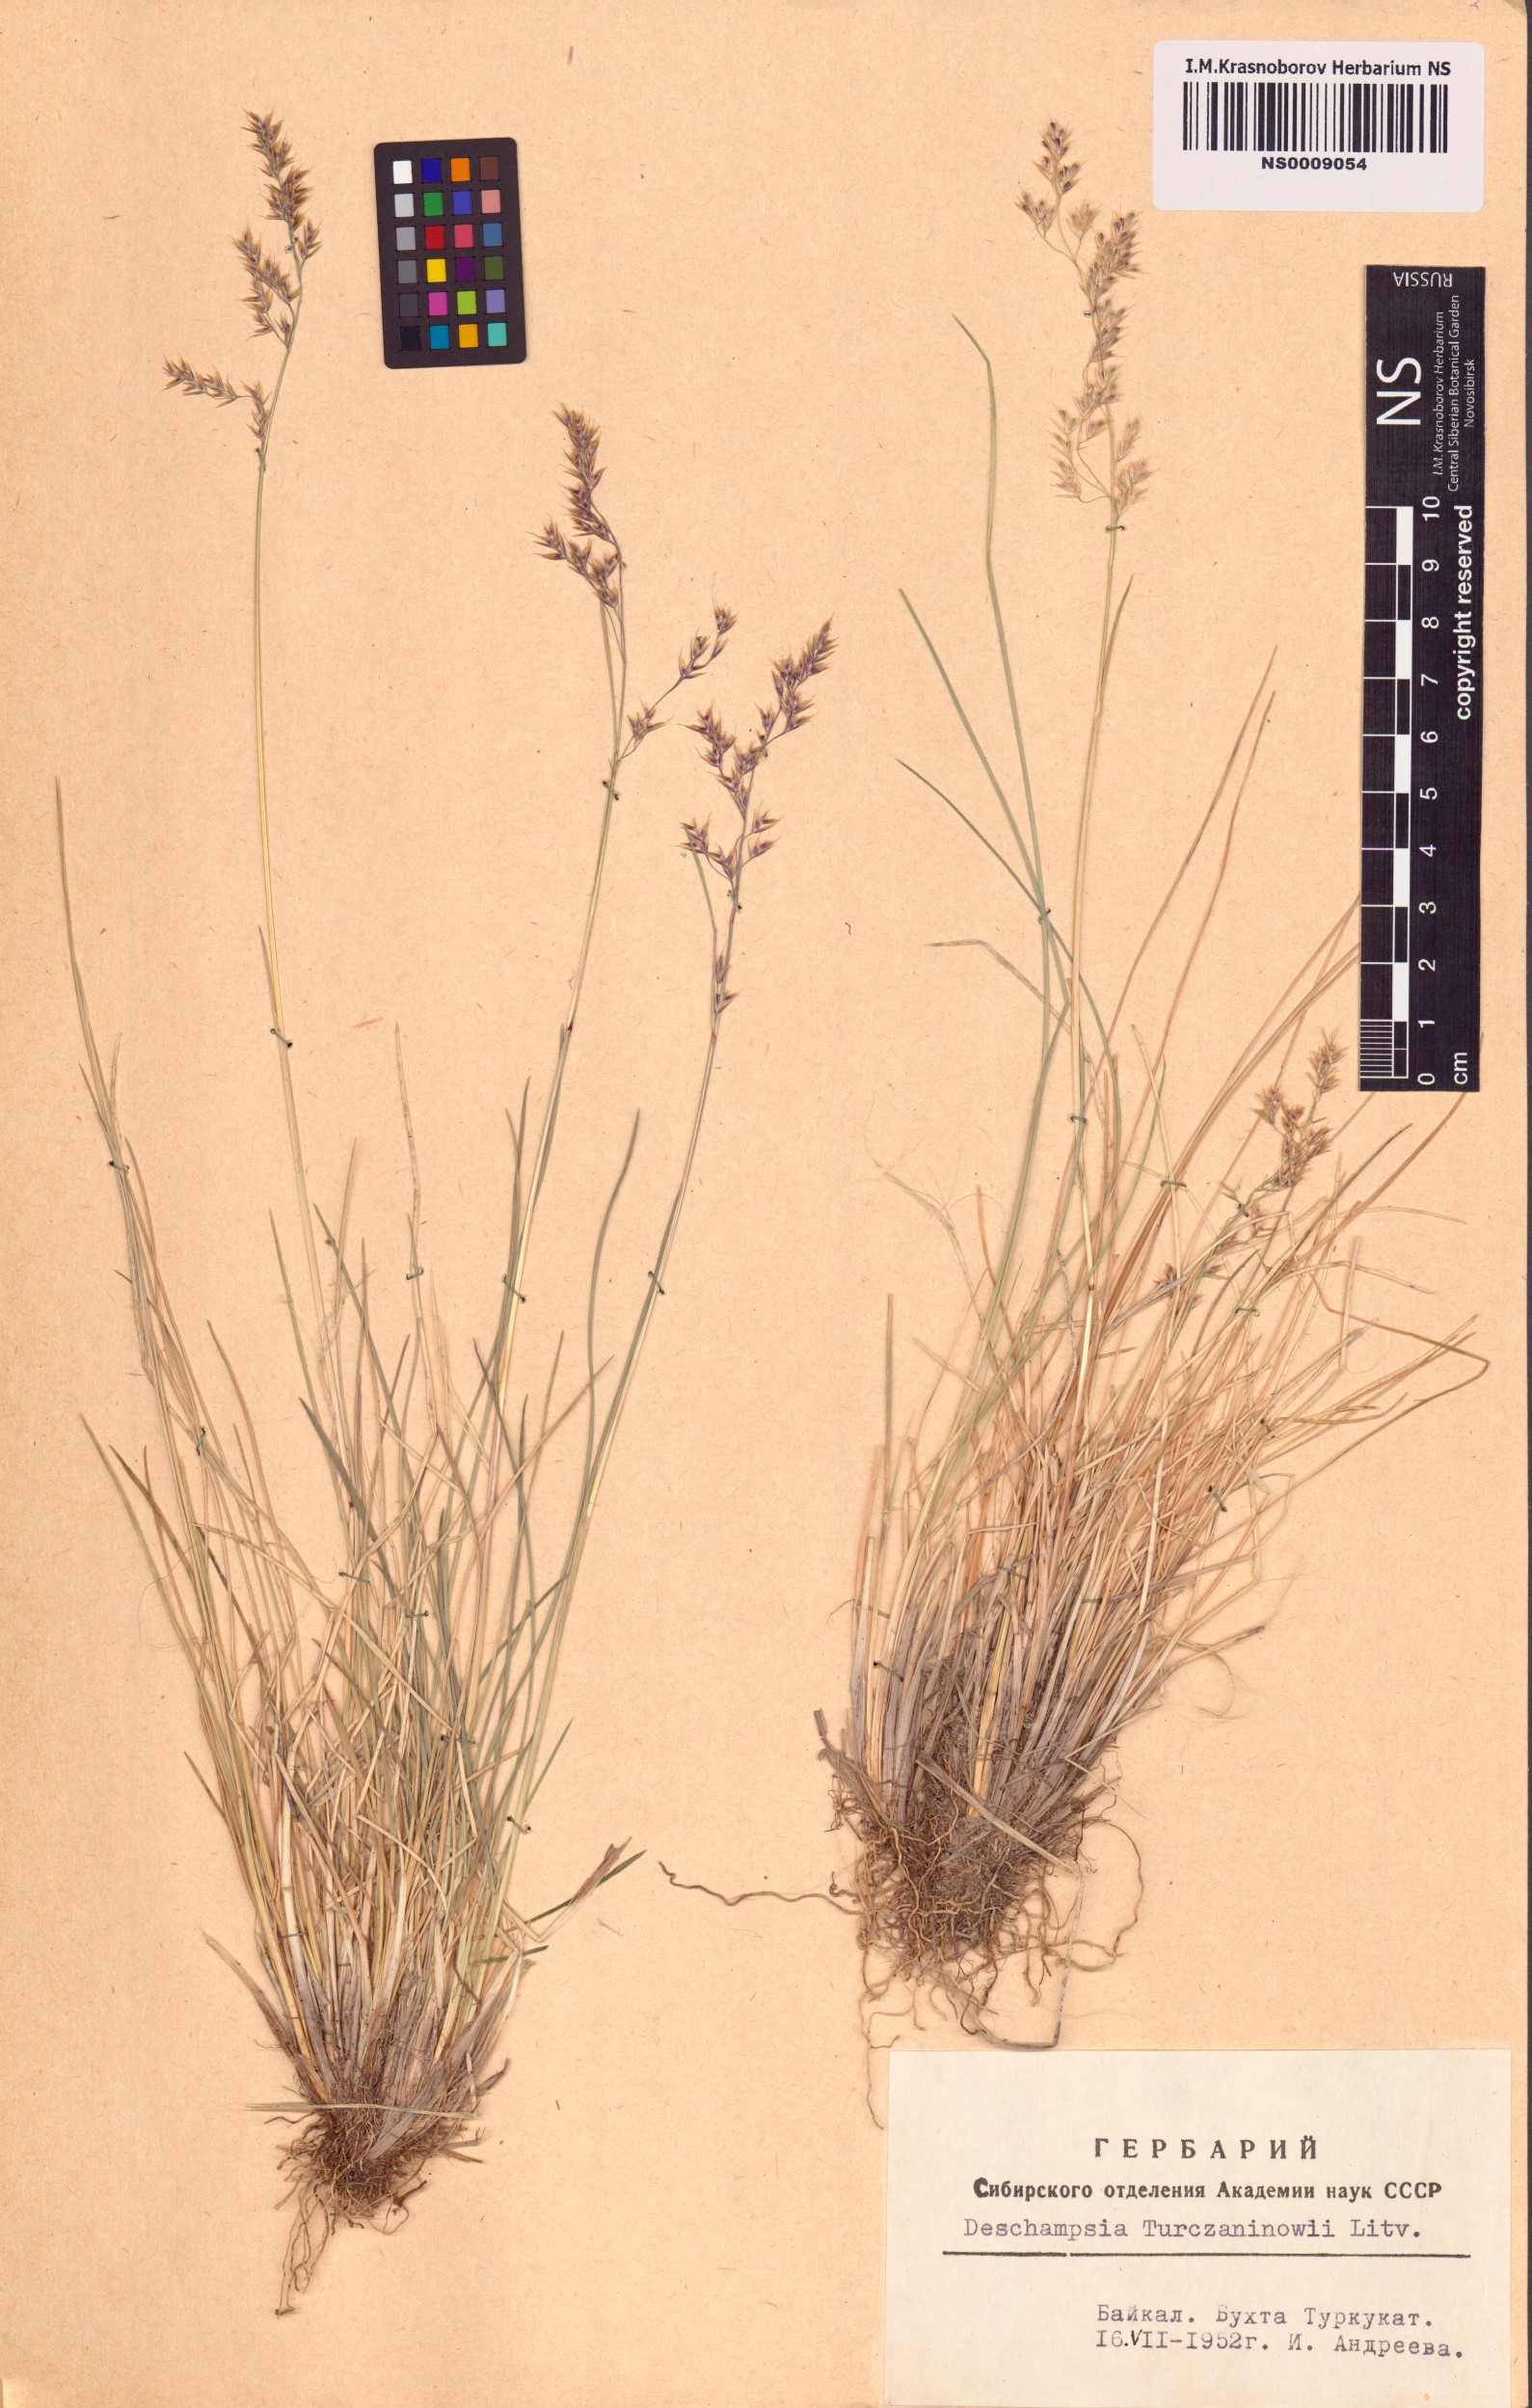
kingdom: Plantae
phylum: Tracheophyta
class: Liliopsida
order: Poales
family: Poaceae
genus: Deschampsia
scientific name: Deschampsia cespitosa
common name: Tufted hair-grass
